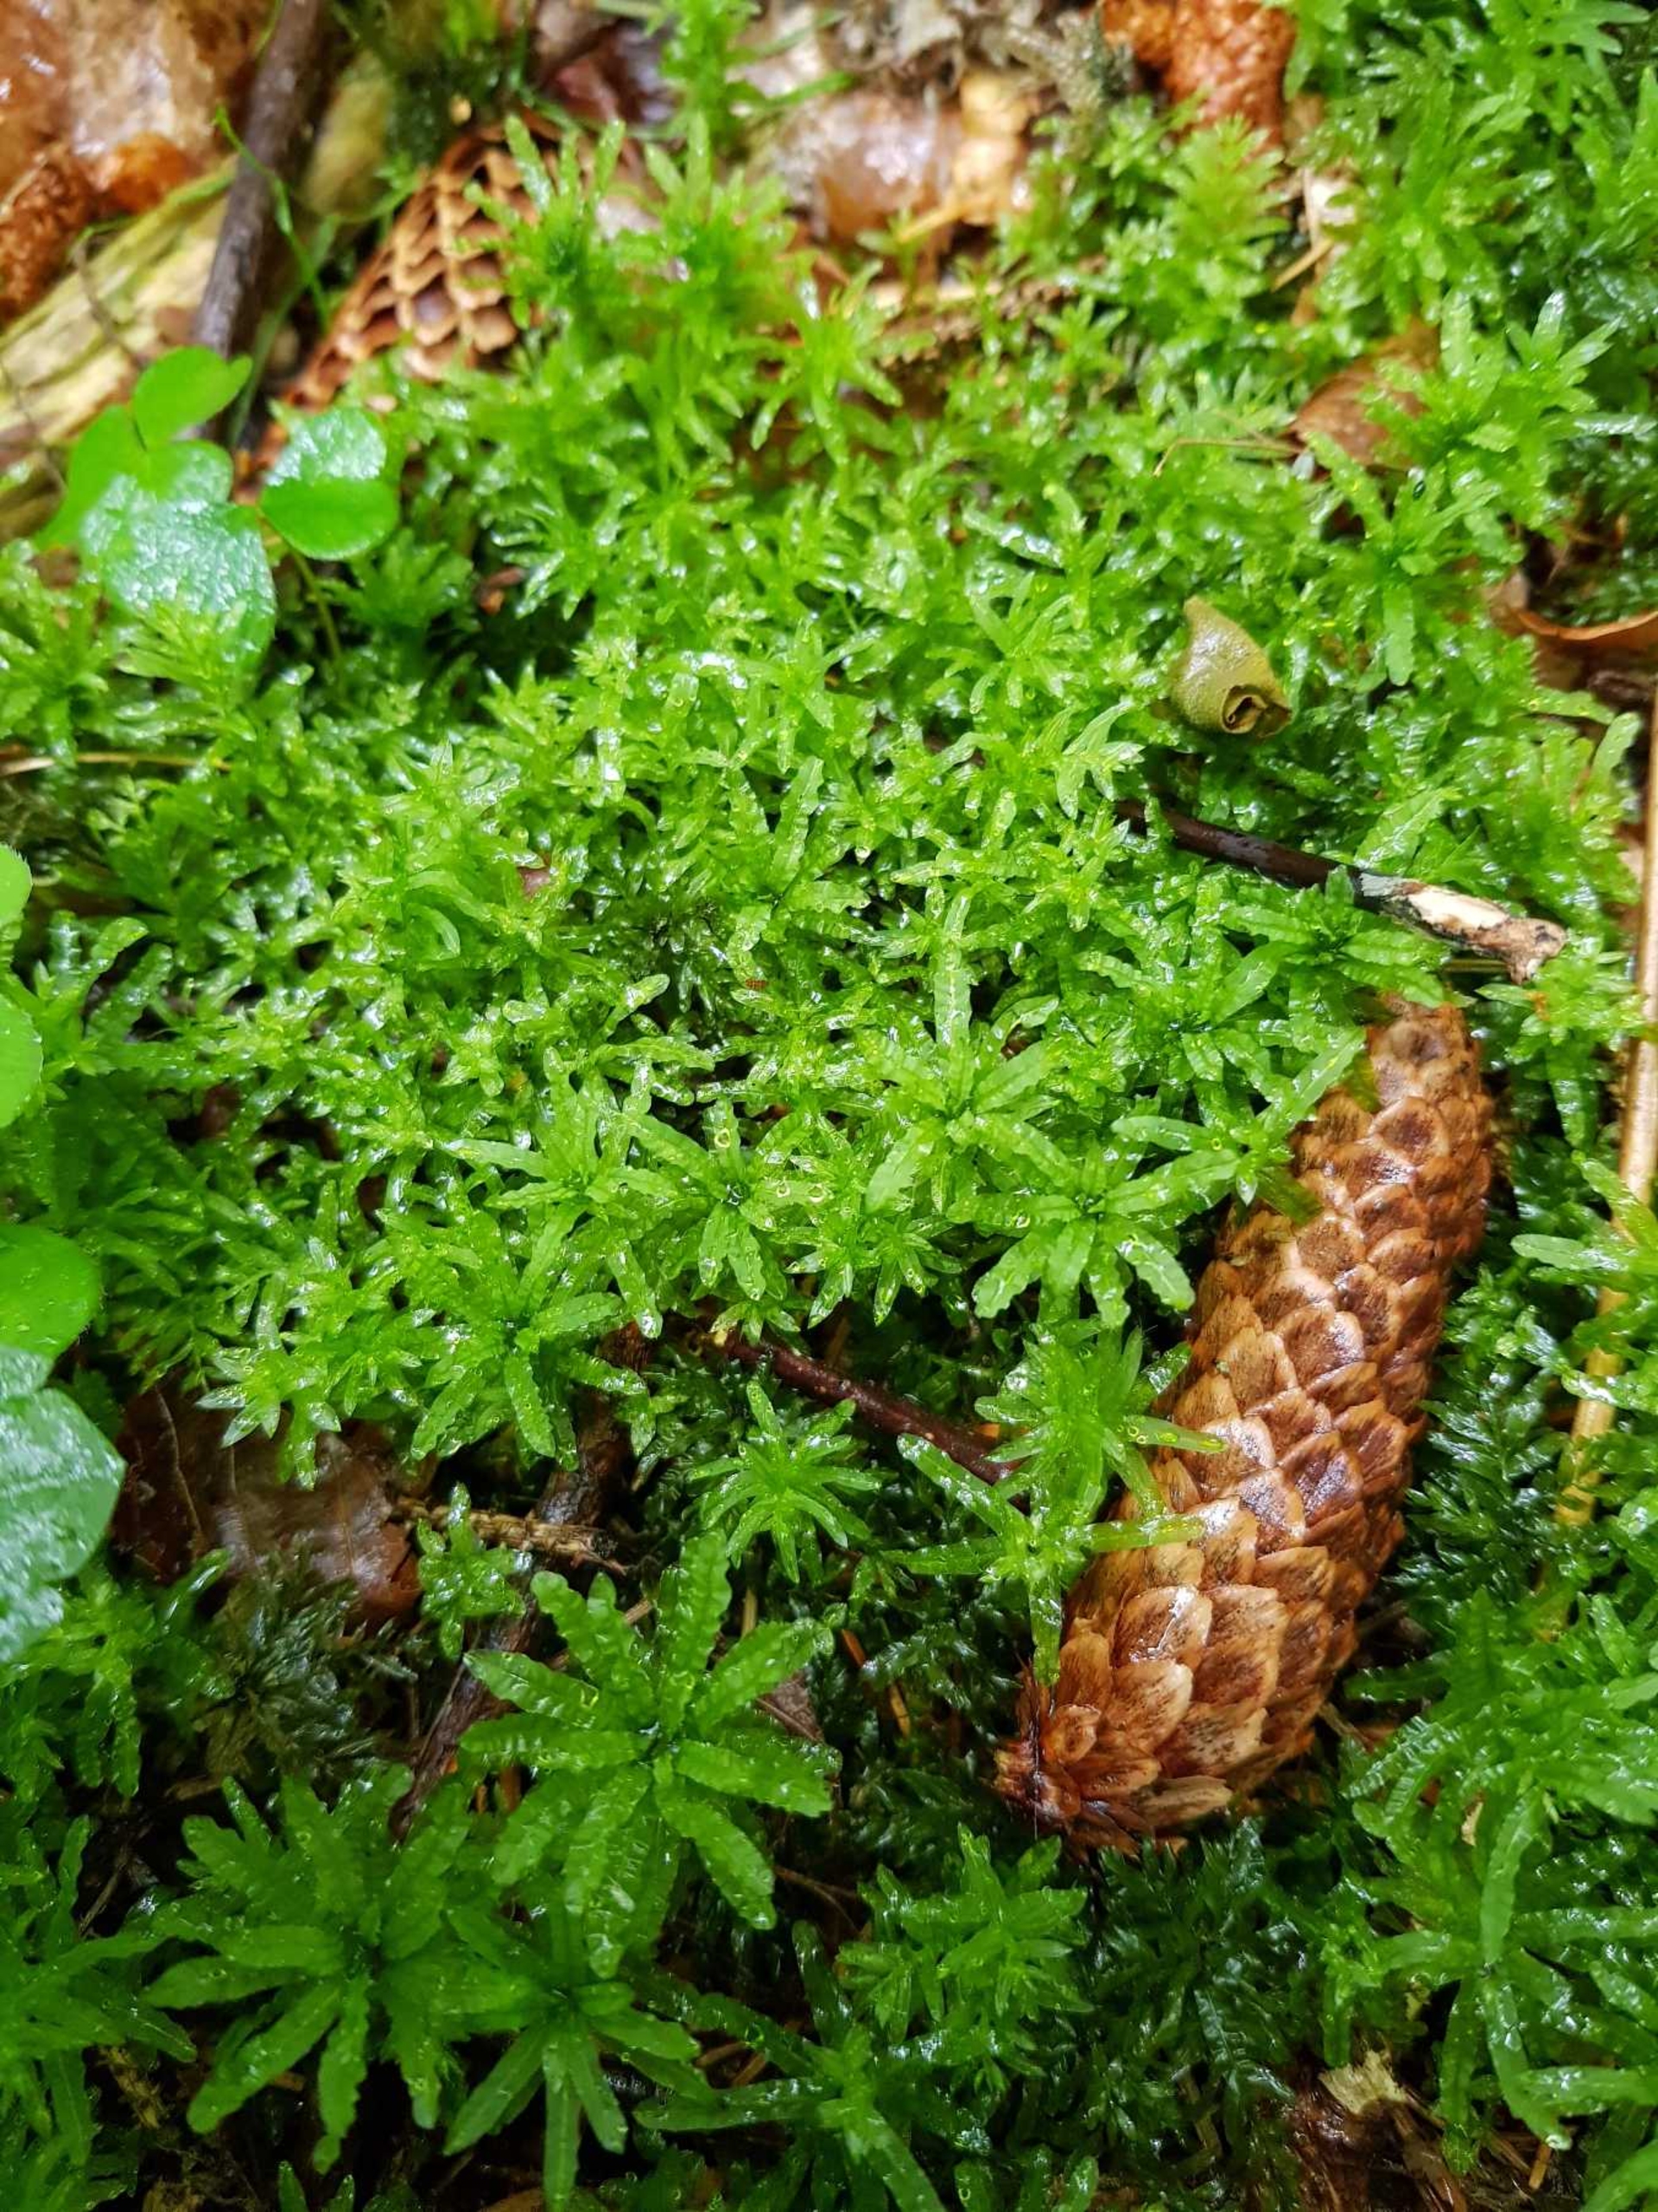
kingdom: Plantae
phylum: Bryophyta
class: Bryopsida
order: Bryales
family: Mniaceae
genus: Plagiomnium
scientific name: Plagiomnium undulatum
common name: Bølget krybstjerne
